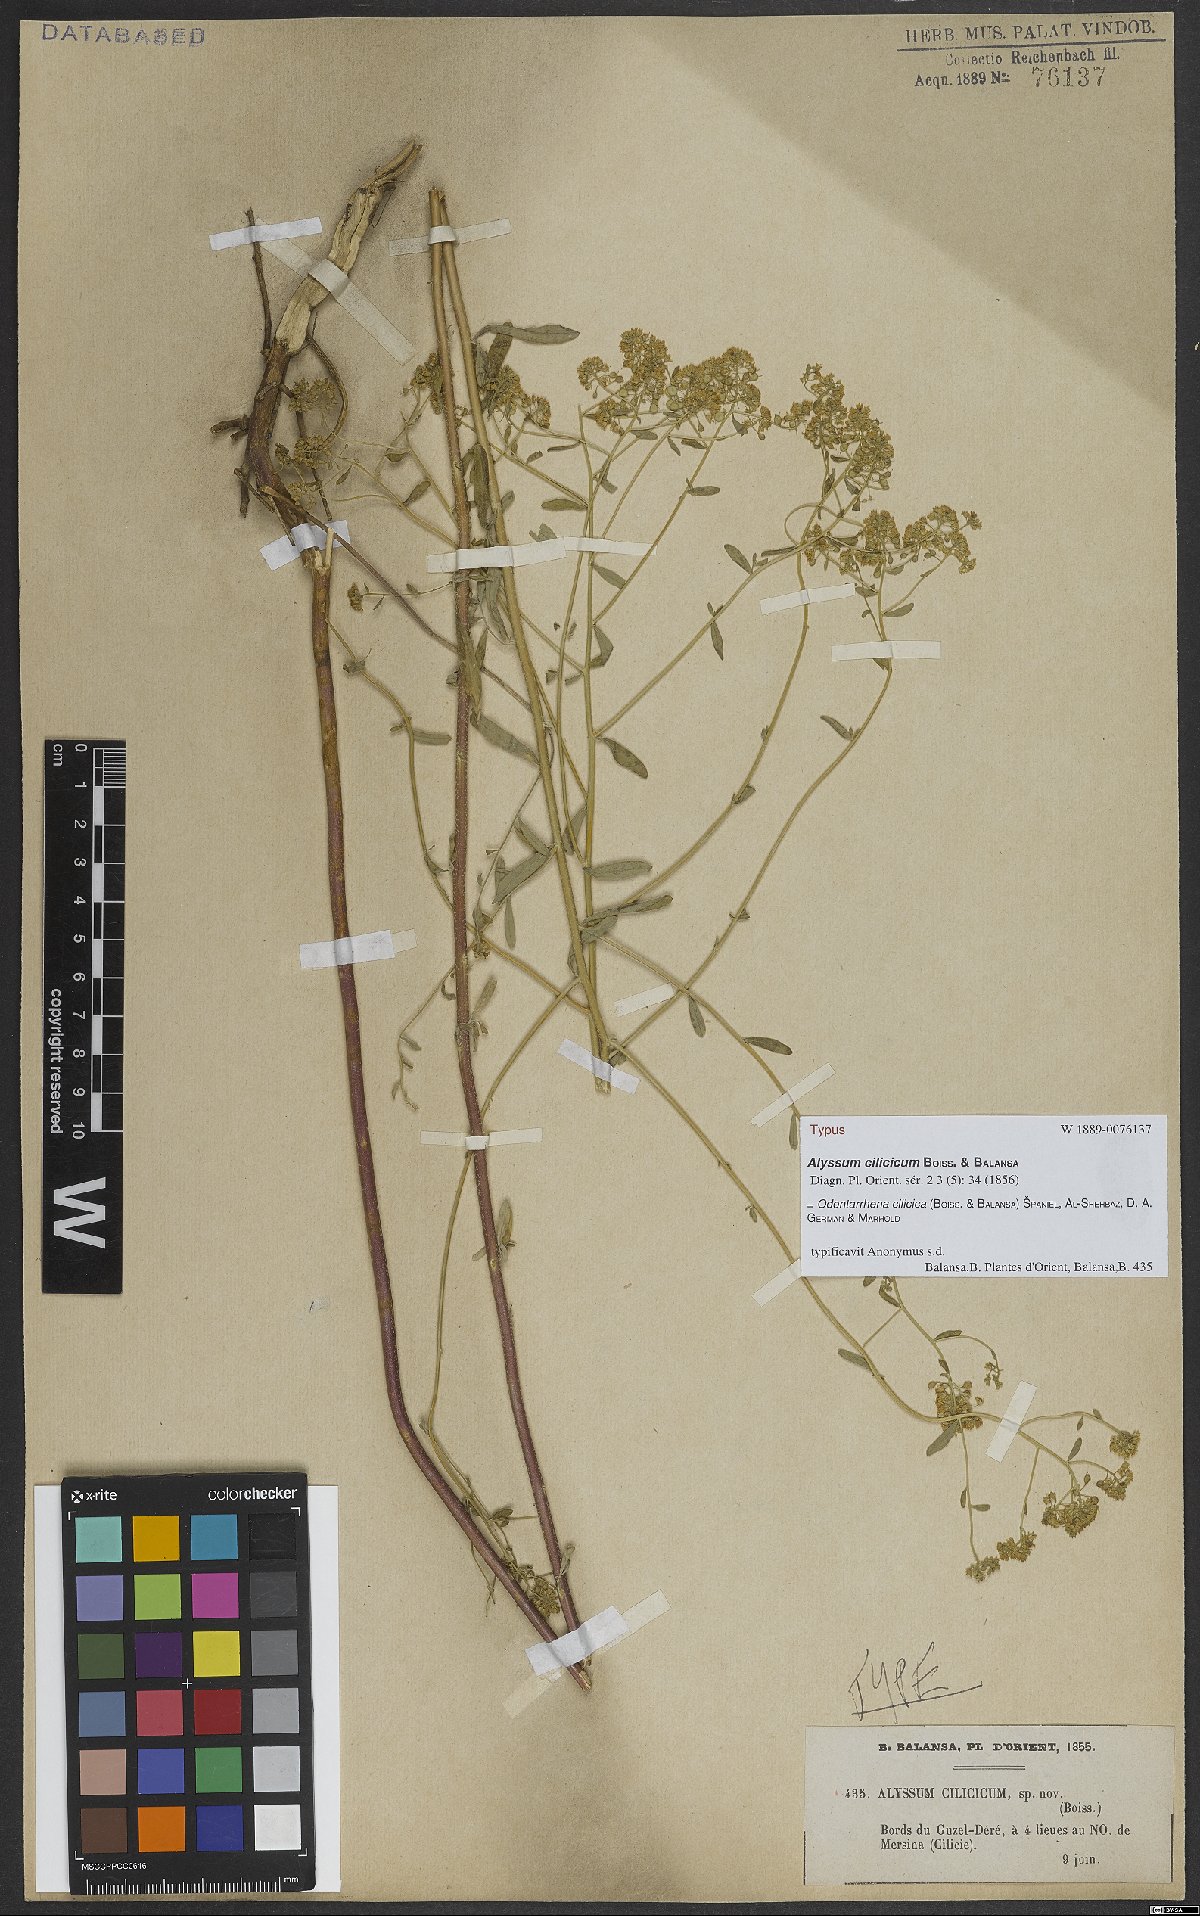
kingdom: Plantae
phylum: Tracheophyta
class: Magnoliopsida
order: Brassicales
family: Brassicaceae
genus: Odontarrhena
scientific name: Odontarrhena cilicica
